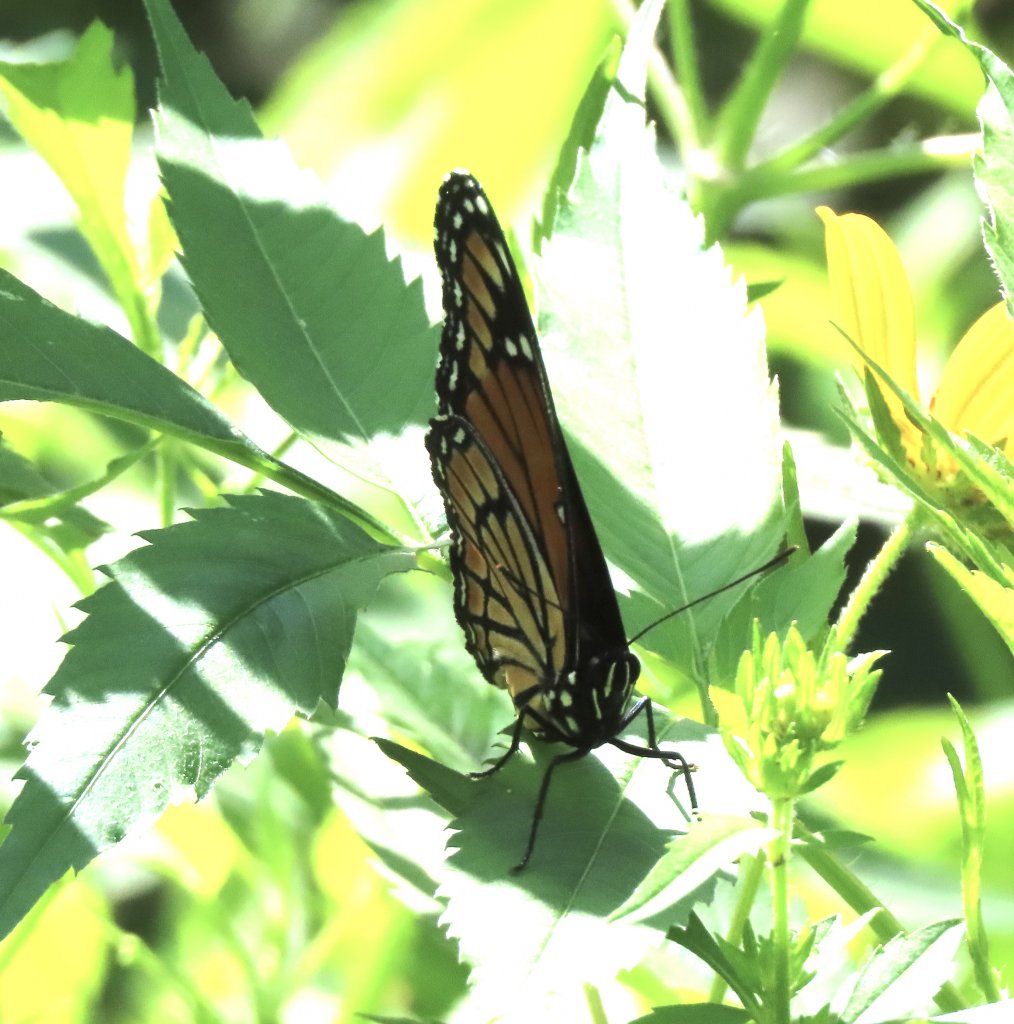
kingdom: Animalia
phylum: Arthropoda
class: Insecta
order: Lepidoptera
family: Nymphalidae
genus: Limenitis
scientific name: Limenitis archippus
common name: Viceroy
